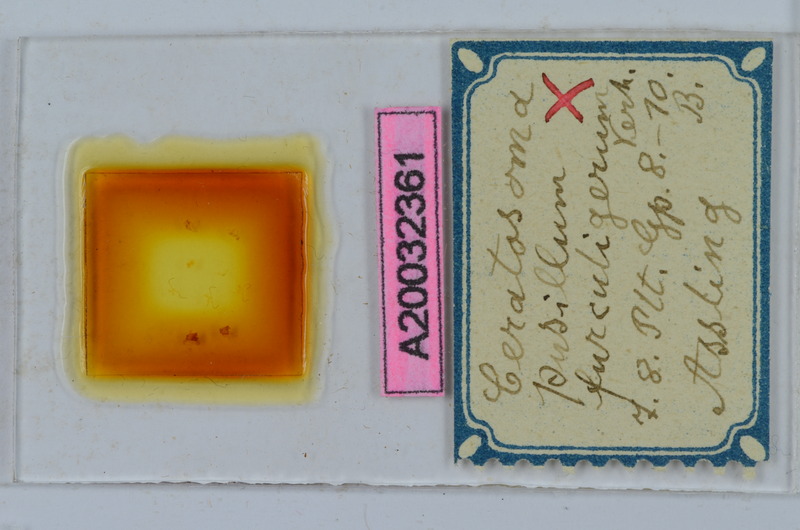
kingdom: Animalia
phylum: Arthropoda
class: Diplopoda
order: Chordeumatida
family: Craspedosomatidae
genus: Ochogona
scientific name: Ochogona pusilla
